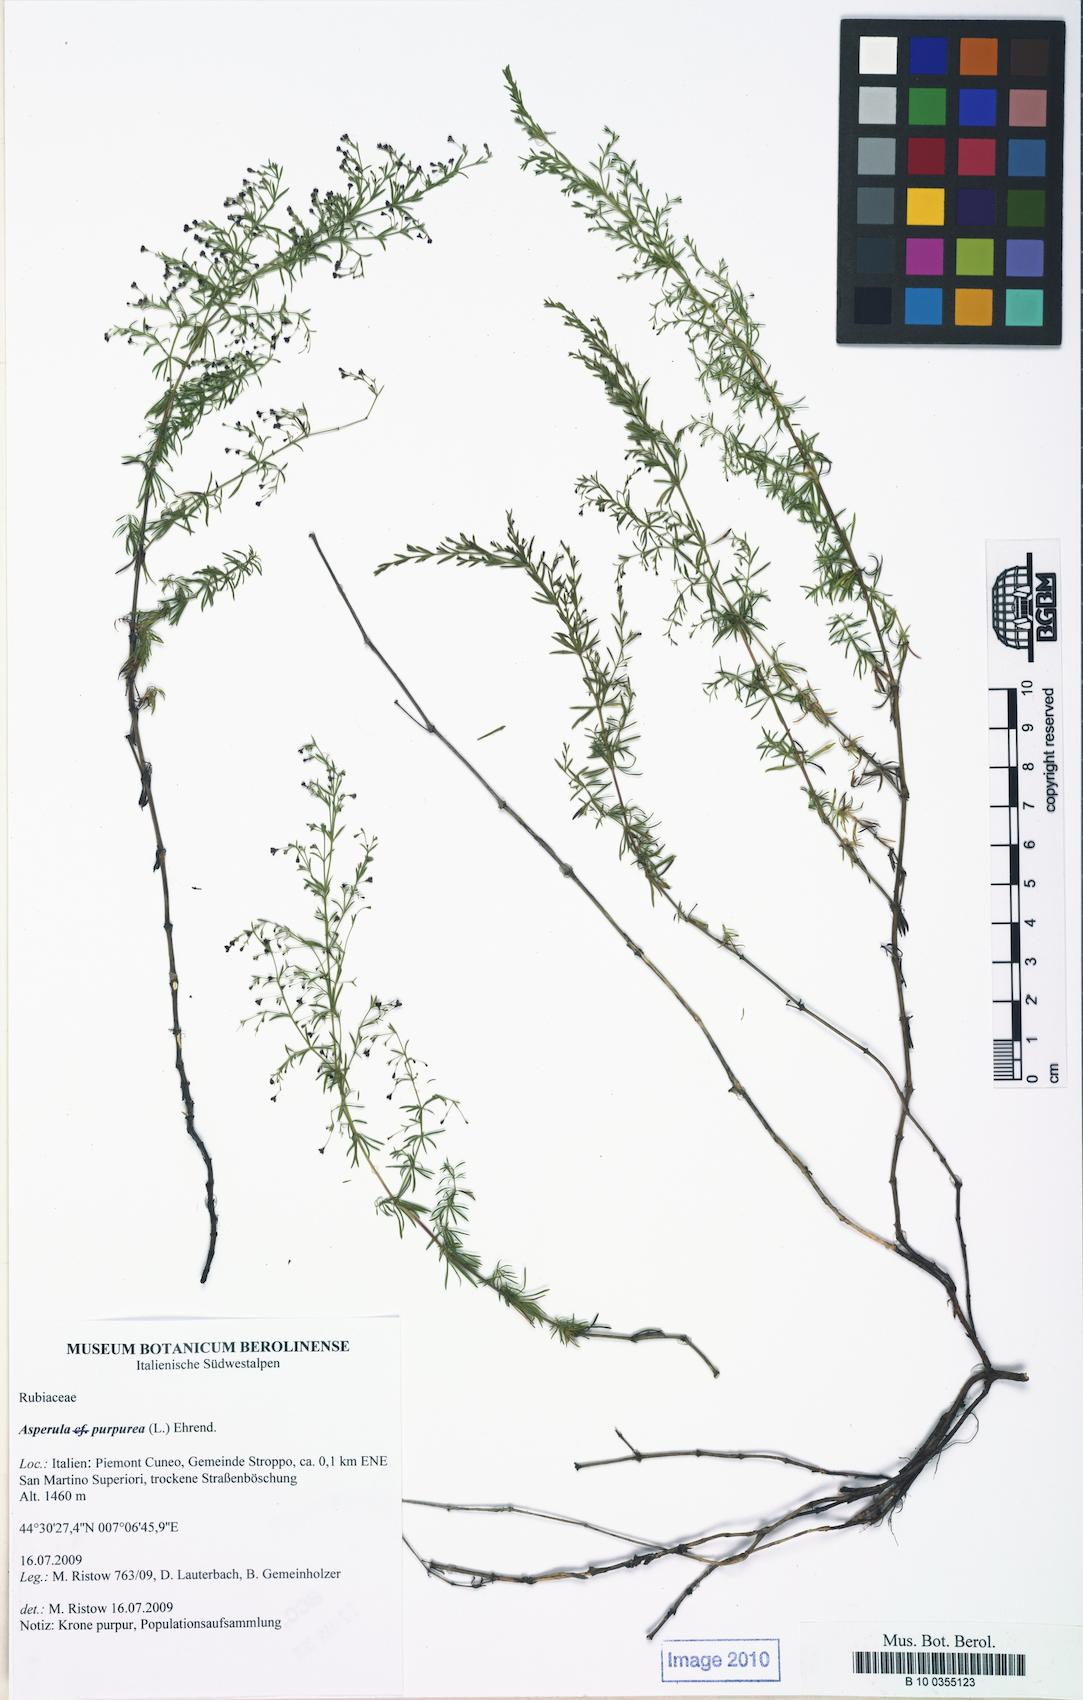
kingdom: Plantae
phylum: Tracheophyta
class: Magnoliopsida
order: Gentianales
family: Rubiaceae
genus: Thliphthisa
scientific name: Thliphthisa purpurea
